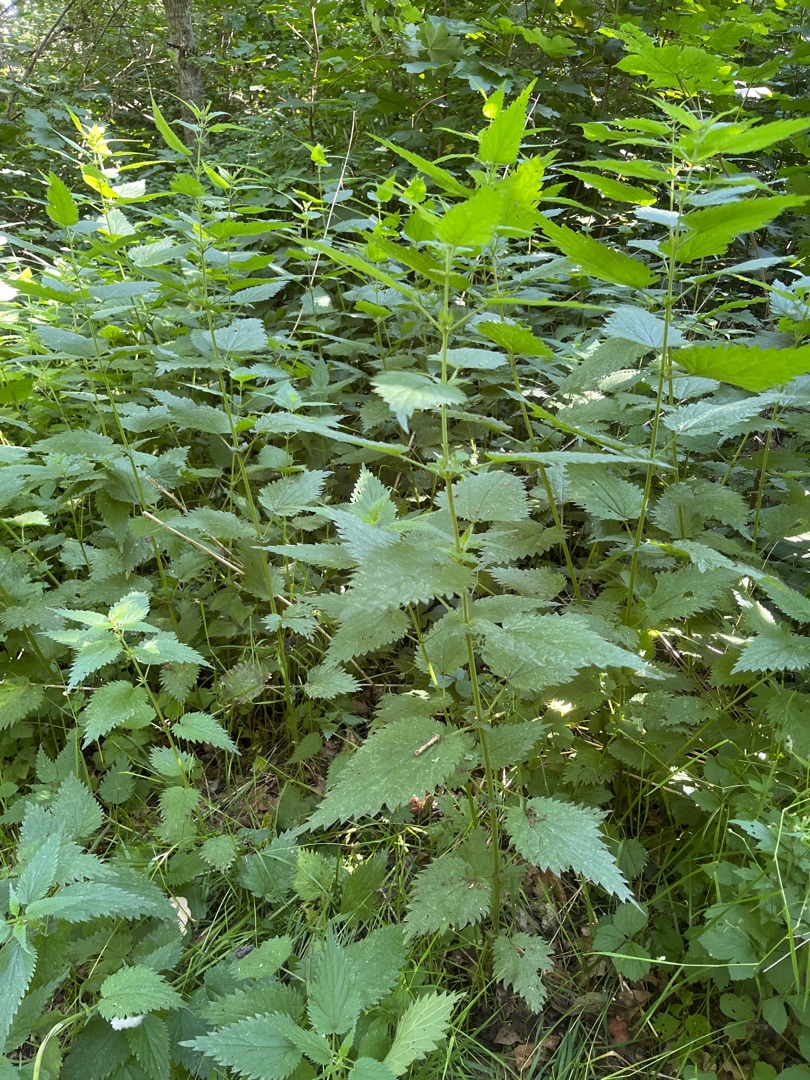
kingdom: Plantae
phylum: Tracheophyta
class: Magnoliopsida
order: Rosales
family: Urticaceae
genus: Urtica
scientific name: Urtica dioica
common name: Stor nælde
